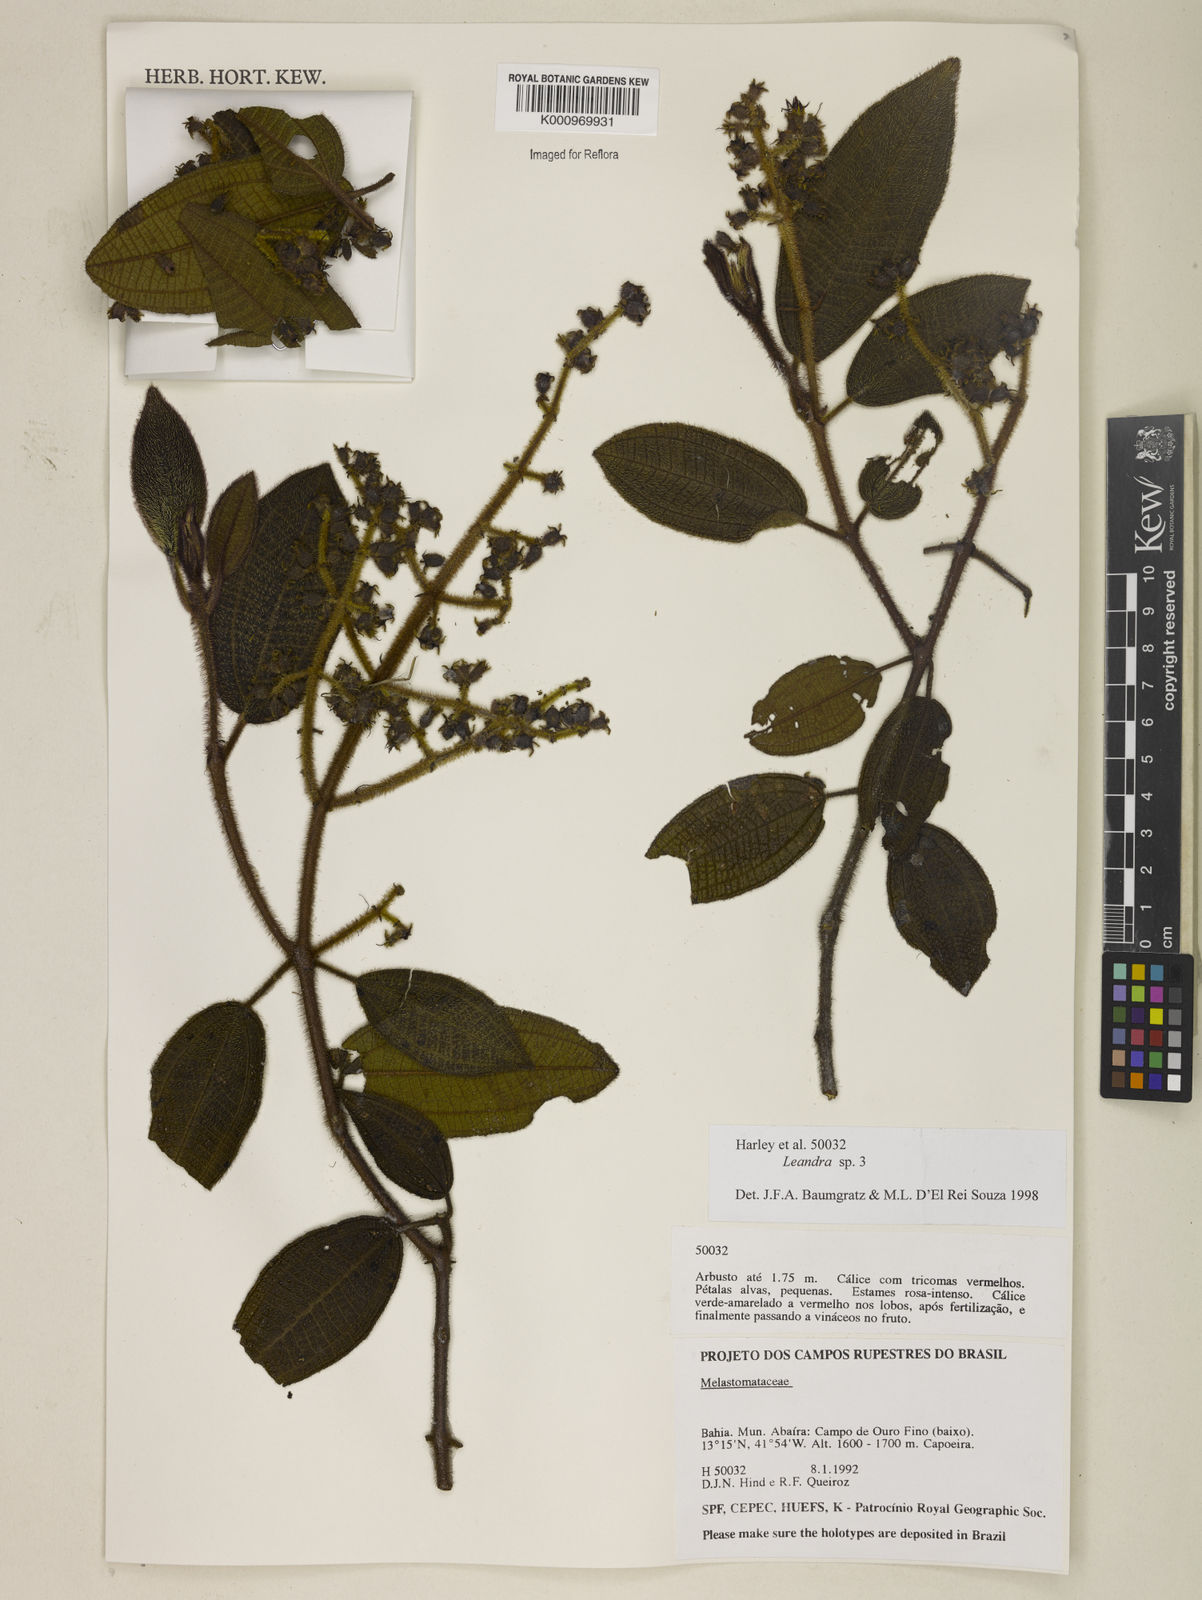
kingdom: Plantae
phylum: Tracheophyta
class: Magnoliopsida
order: Myrtales
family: Melastomataceae
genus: Miconia
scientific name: Miconia
